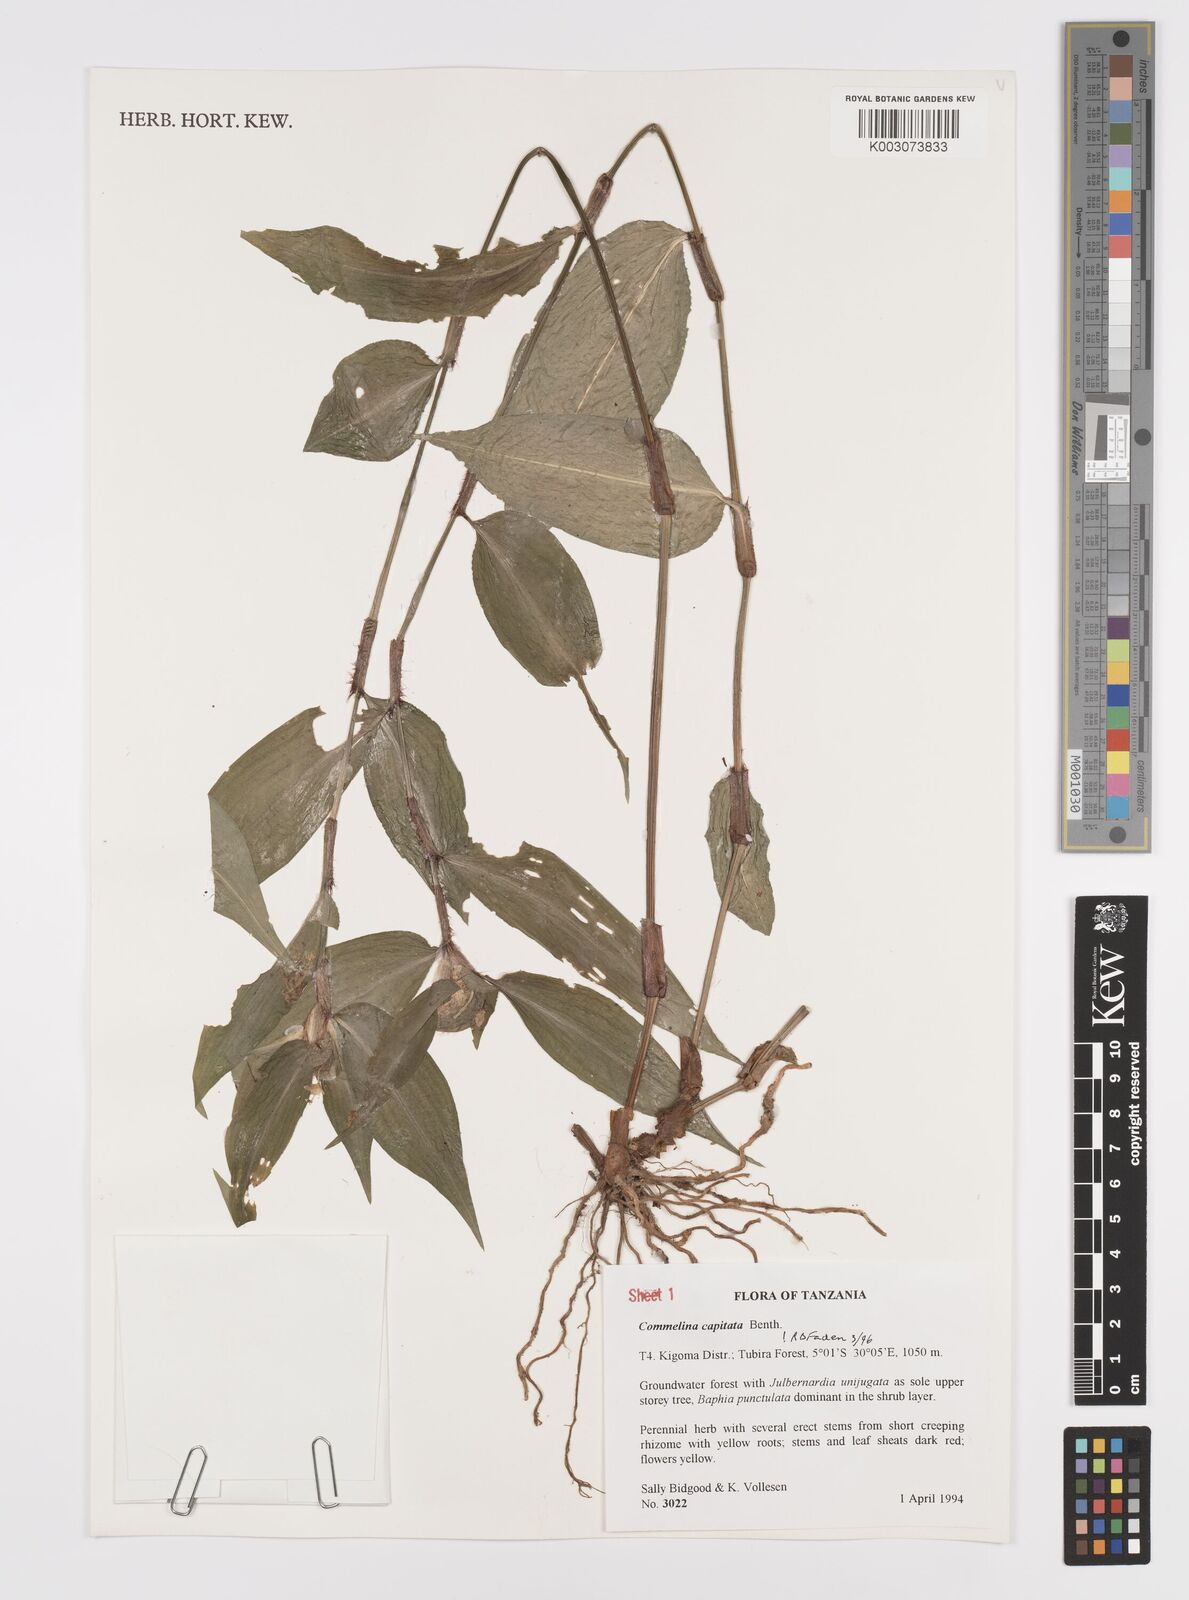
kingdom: Plantae
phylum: Tracheophyta
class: Liliopsida
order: Commelinales
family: Commelinaceae
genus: Commelina
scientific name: Commelina capitata
